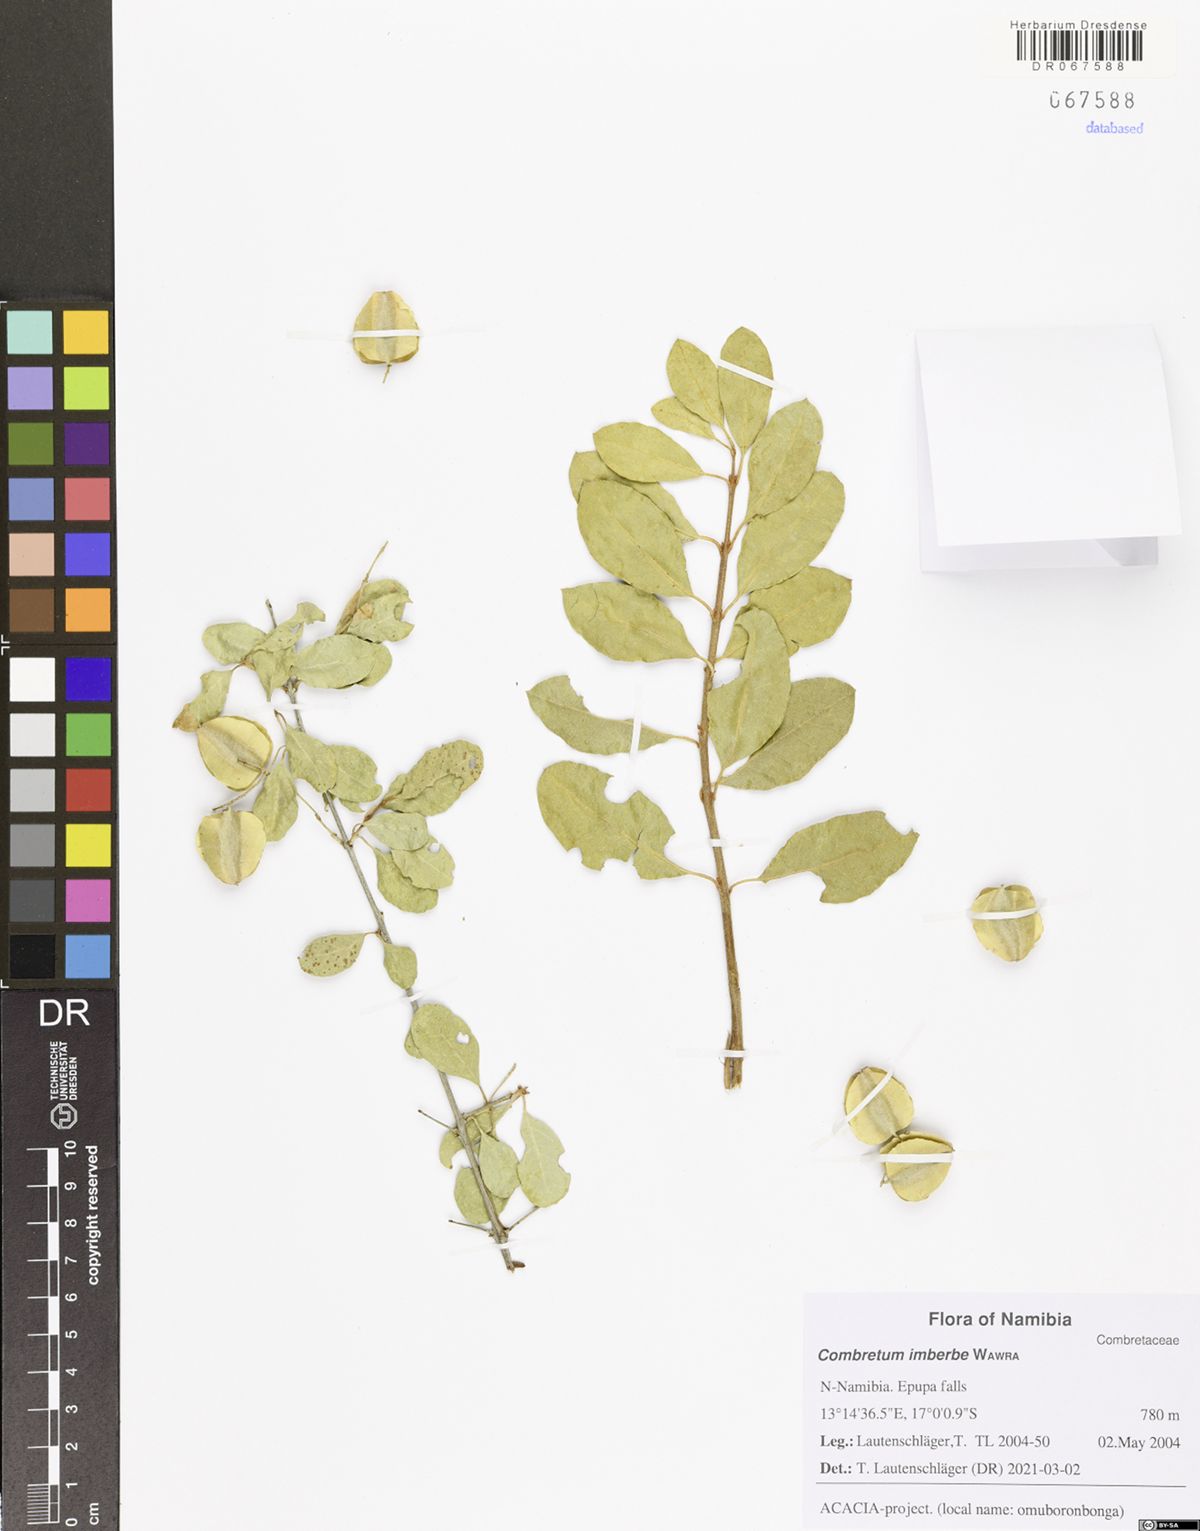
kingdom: Plantae
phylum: Tracheophyta
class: Magnoliopsida
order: Myrtales
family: Combretaceae
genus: Combretum
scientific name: Combretum imberbe
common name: Leadwood
